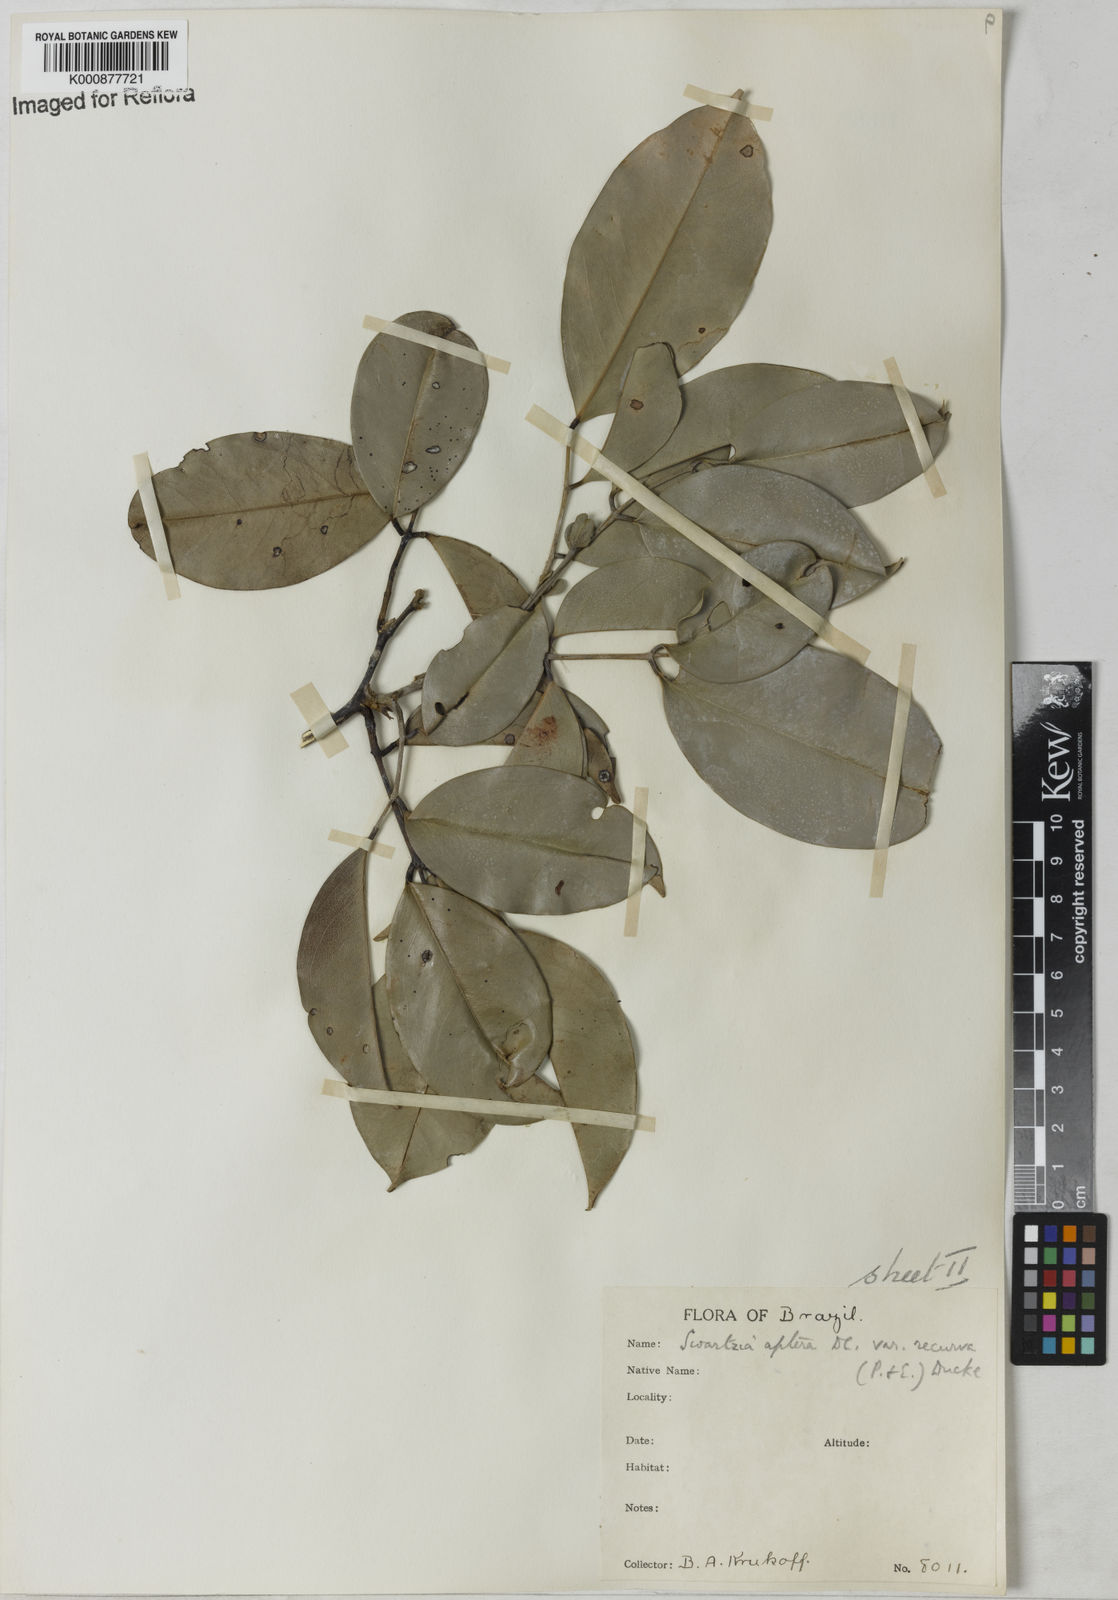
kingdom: Plantae
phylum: Tracheophyta
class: Magnoliopsida
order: Fabales
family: Fabaceae
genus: Swartzia
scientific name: Swartzia recurva
